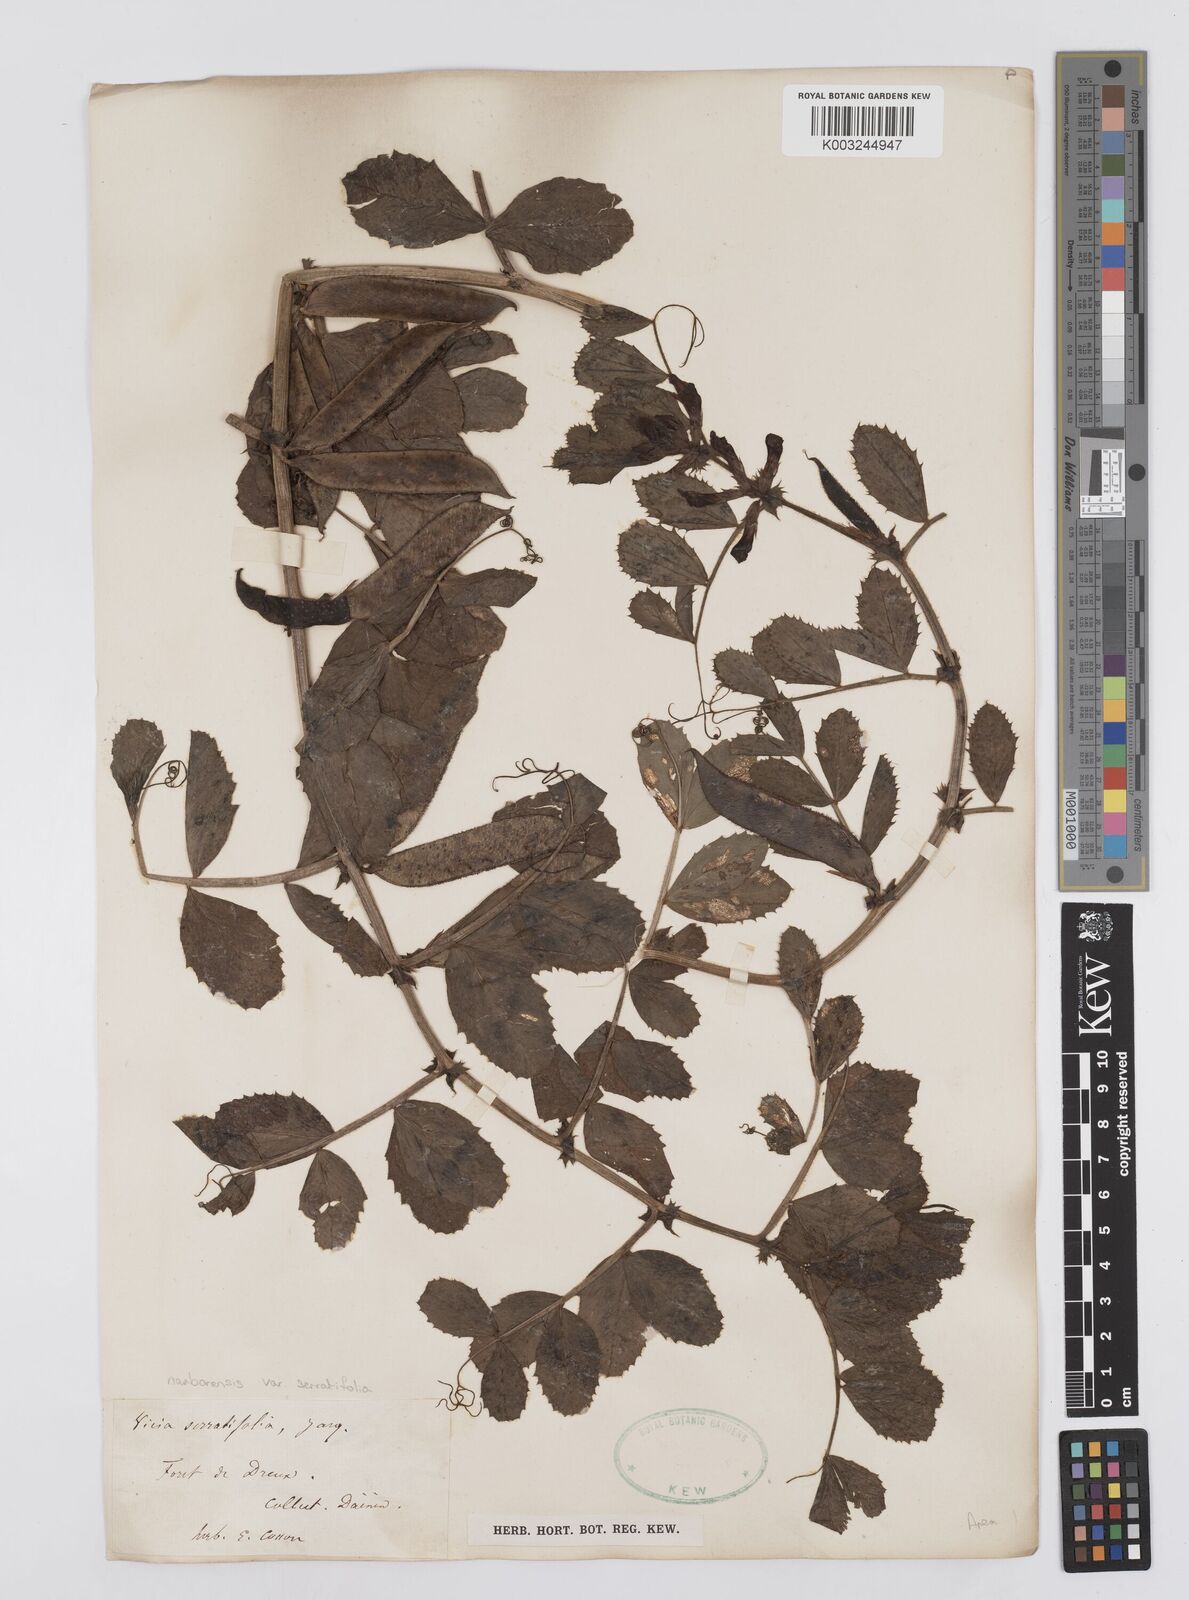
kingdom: Plantae
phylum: Tracheophyta
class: Magnoliopsida
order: Fabales
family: Fabaceae
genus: Vicia
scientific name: Vicia serratifolia
